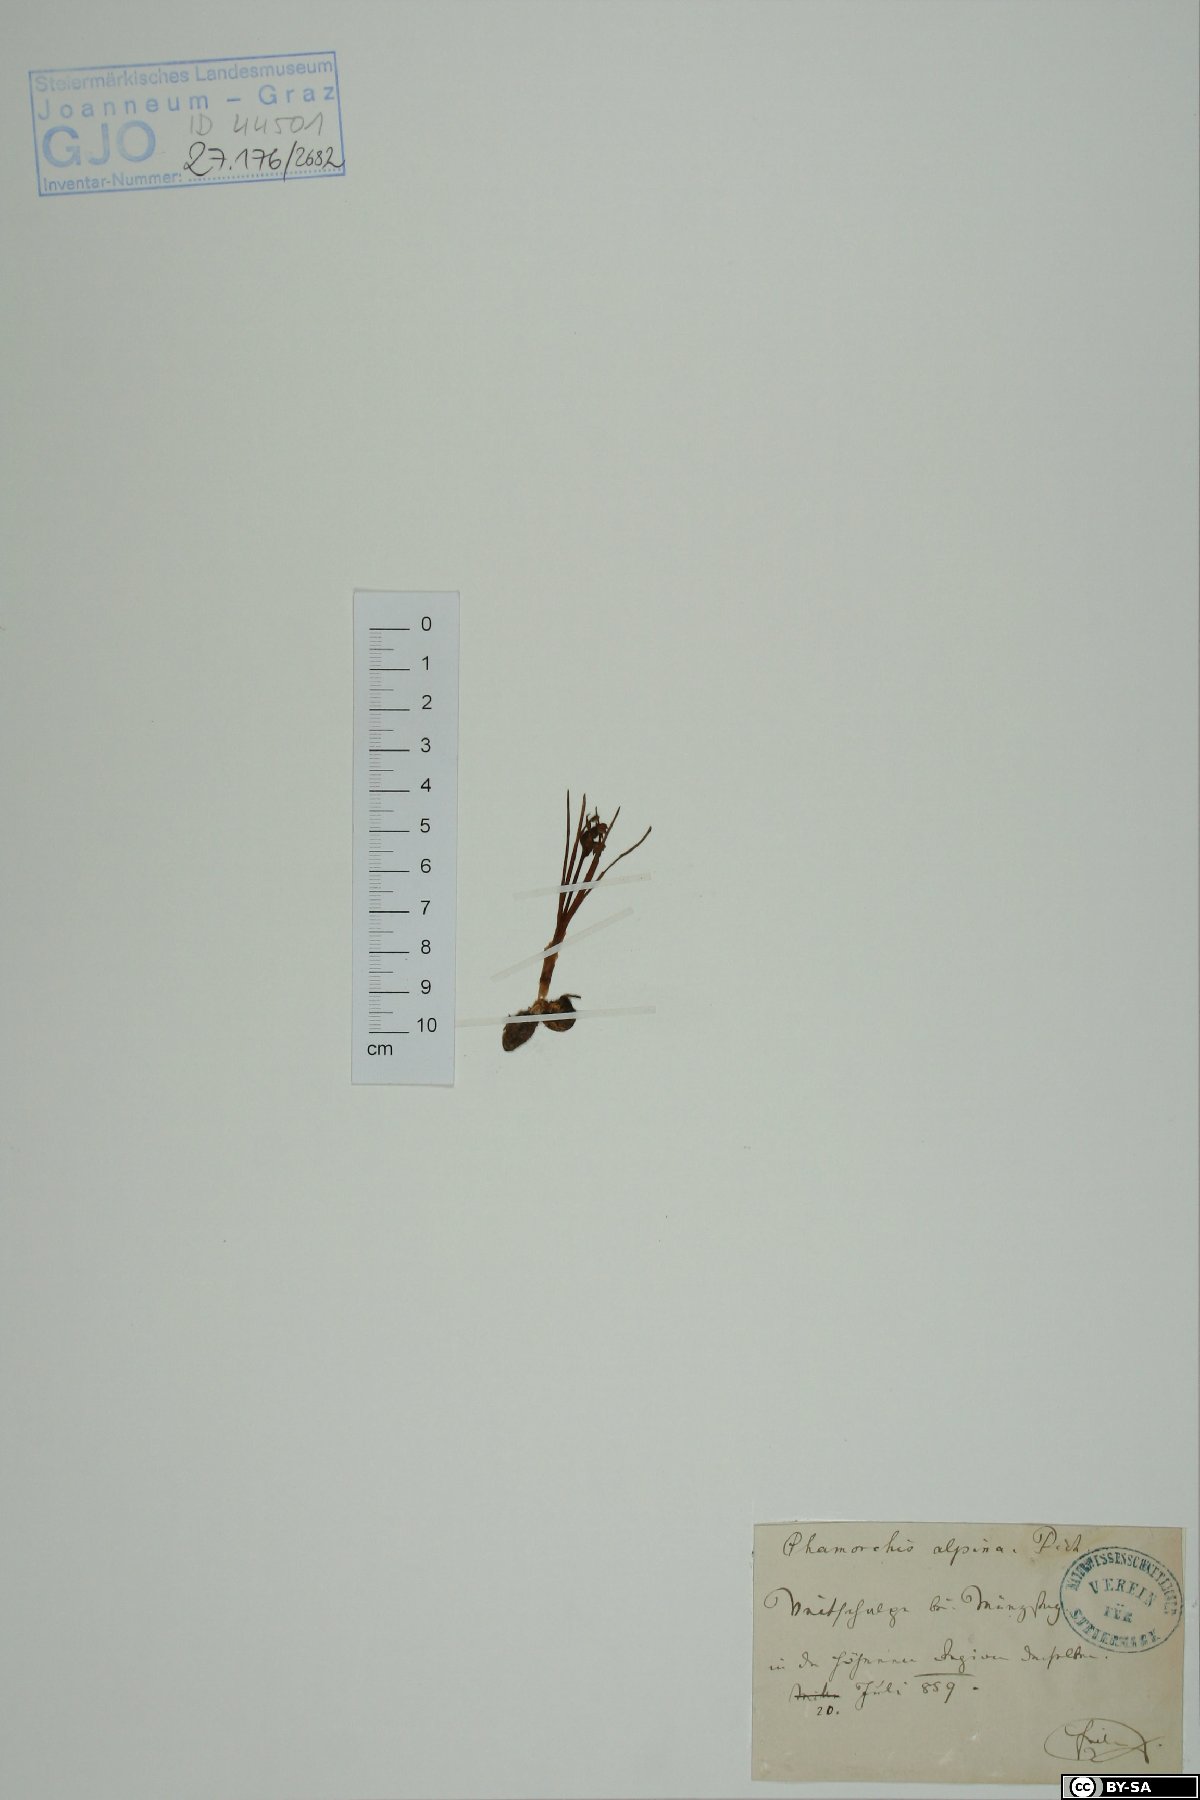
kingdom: Plantae
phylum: Tracheophyta
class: Liliopsida
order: Asparagales
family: Orchidaceae
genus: Chamorchis
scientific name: Chamorchis alpina
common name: Alpine chamorchis
